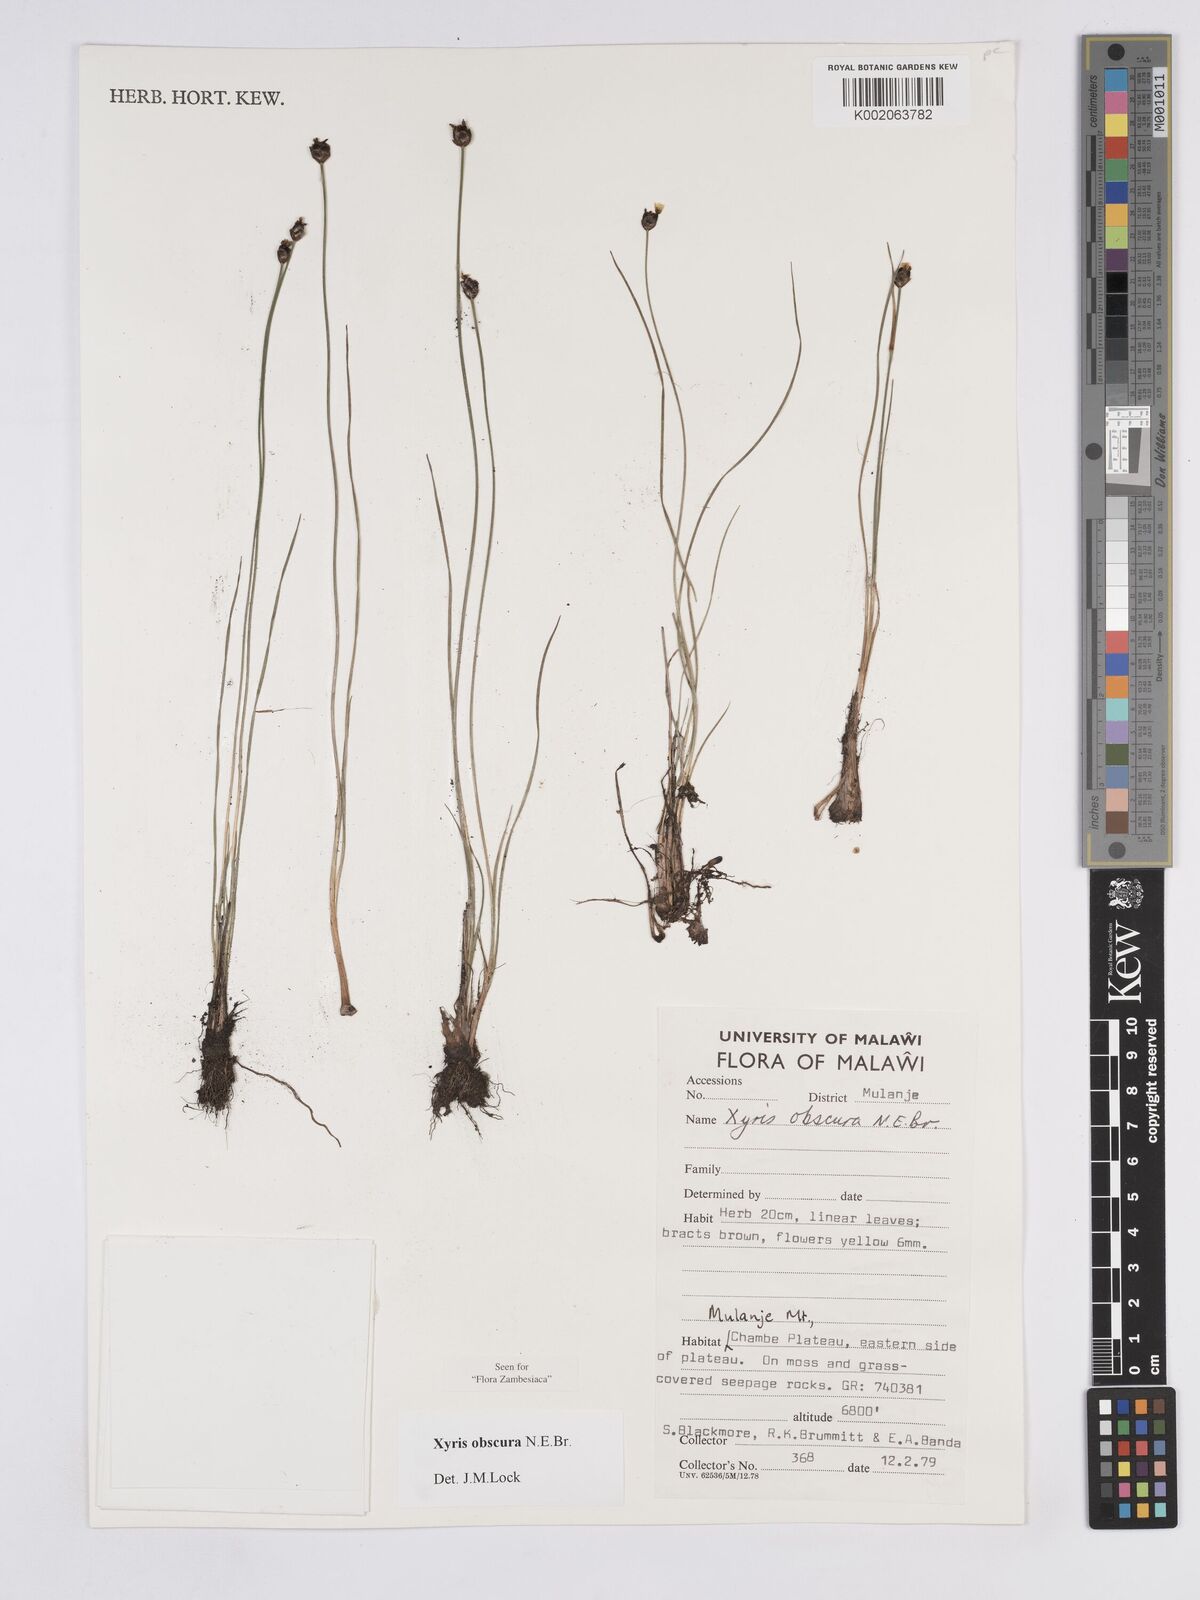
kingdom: Plantae
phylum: Tracheophyta
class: Liliopsida
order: Poales
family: Xyridaceae
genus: Xyris
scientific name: Xyris obscura
